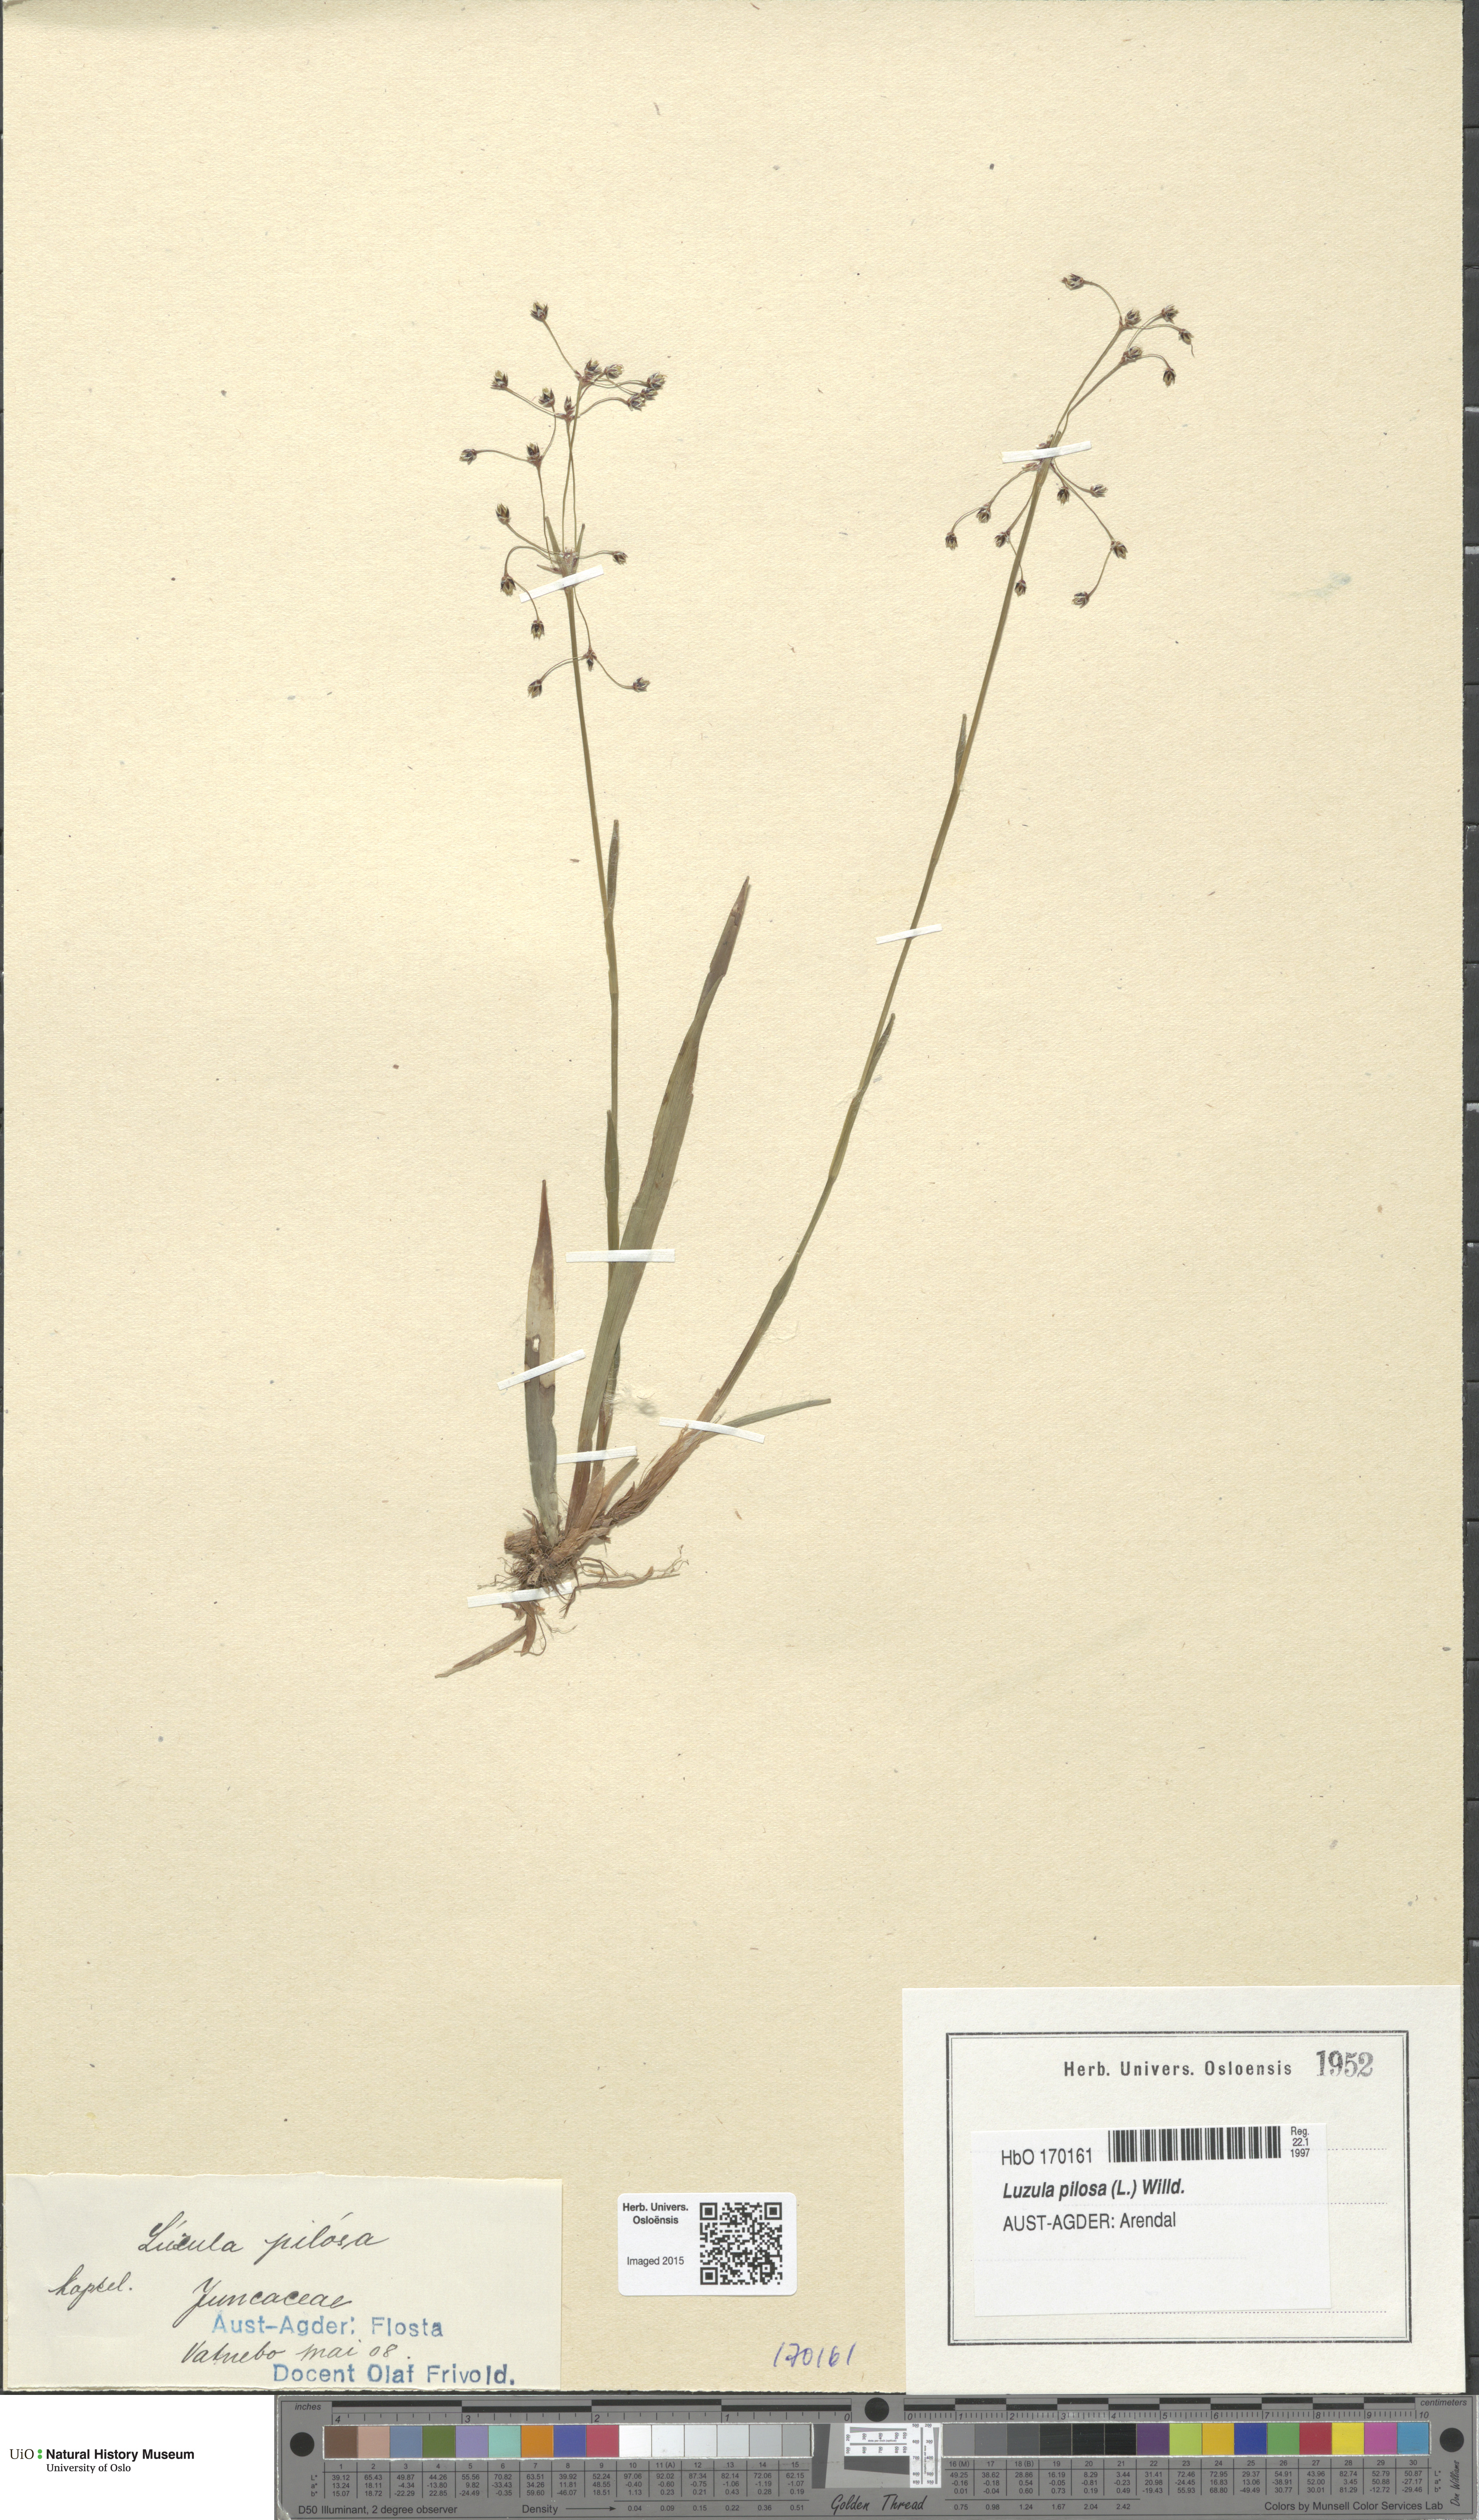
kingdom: Plantae
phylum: Tracheophyta
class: Liliopsida
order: Poales
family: Juncaceae
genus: Luzula
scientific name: Luzula pilosa
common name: Hairy wood-rush
